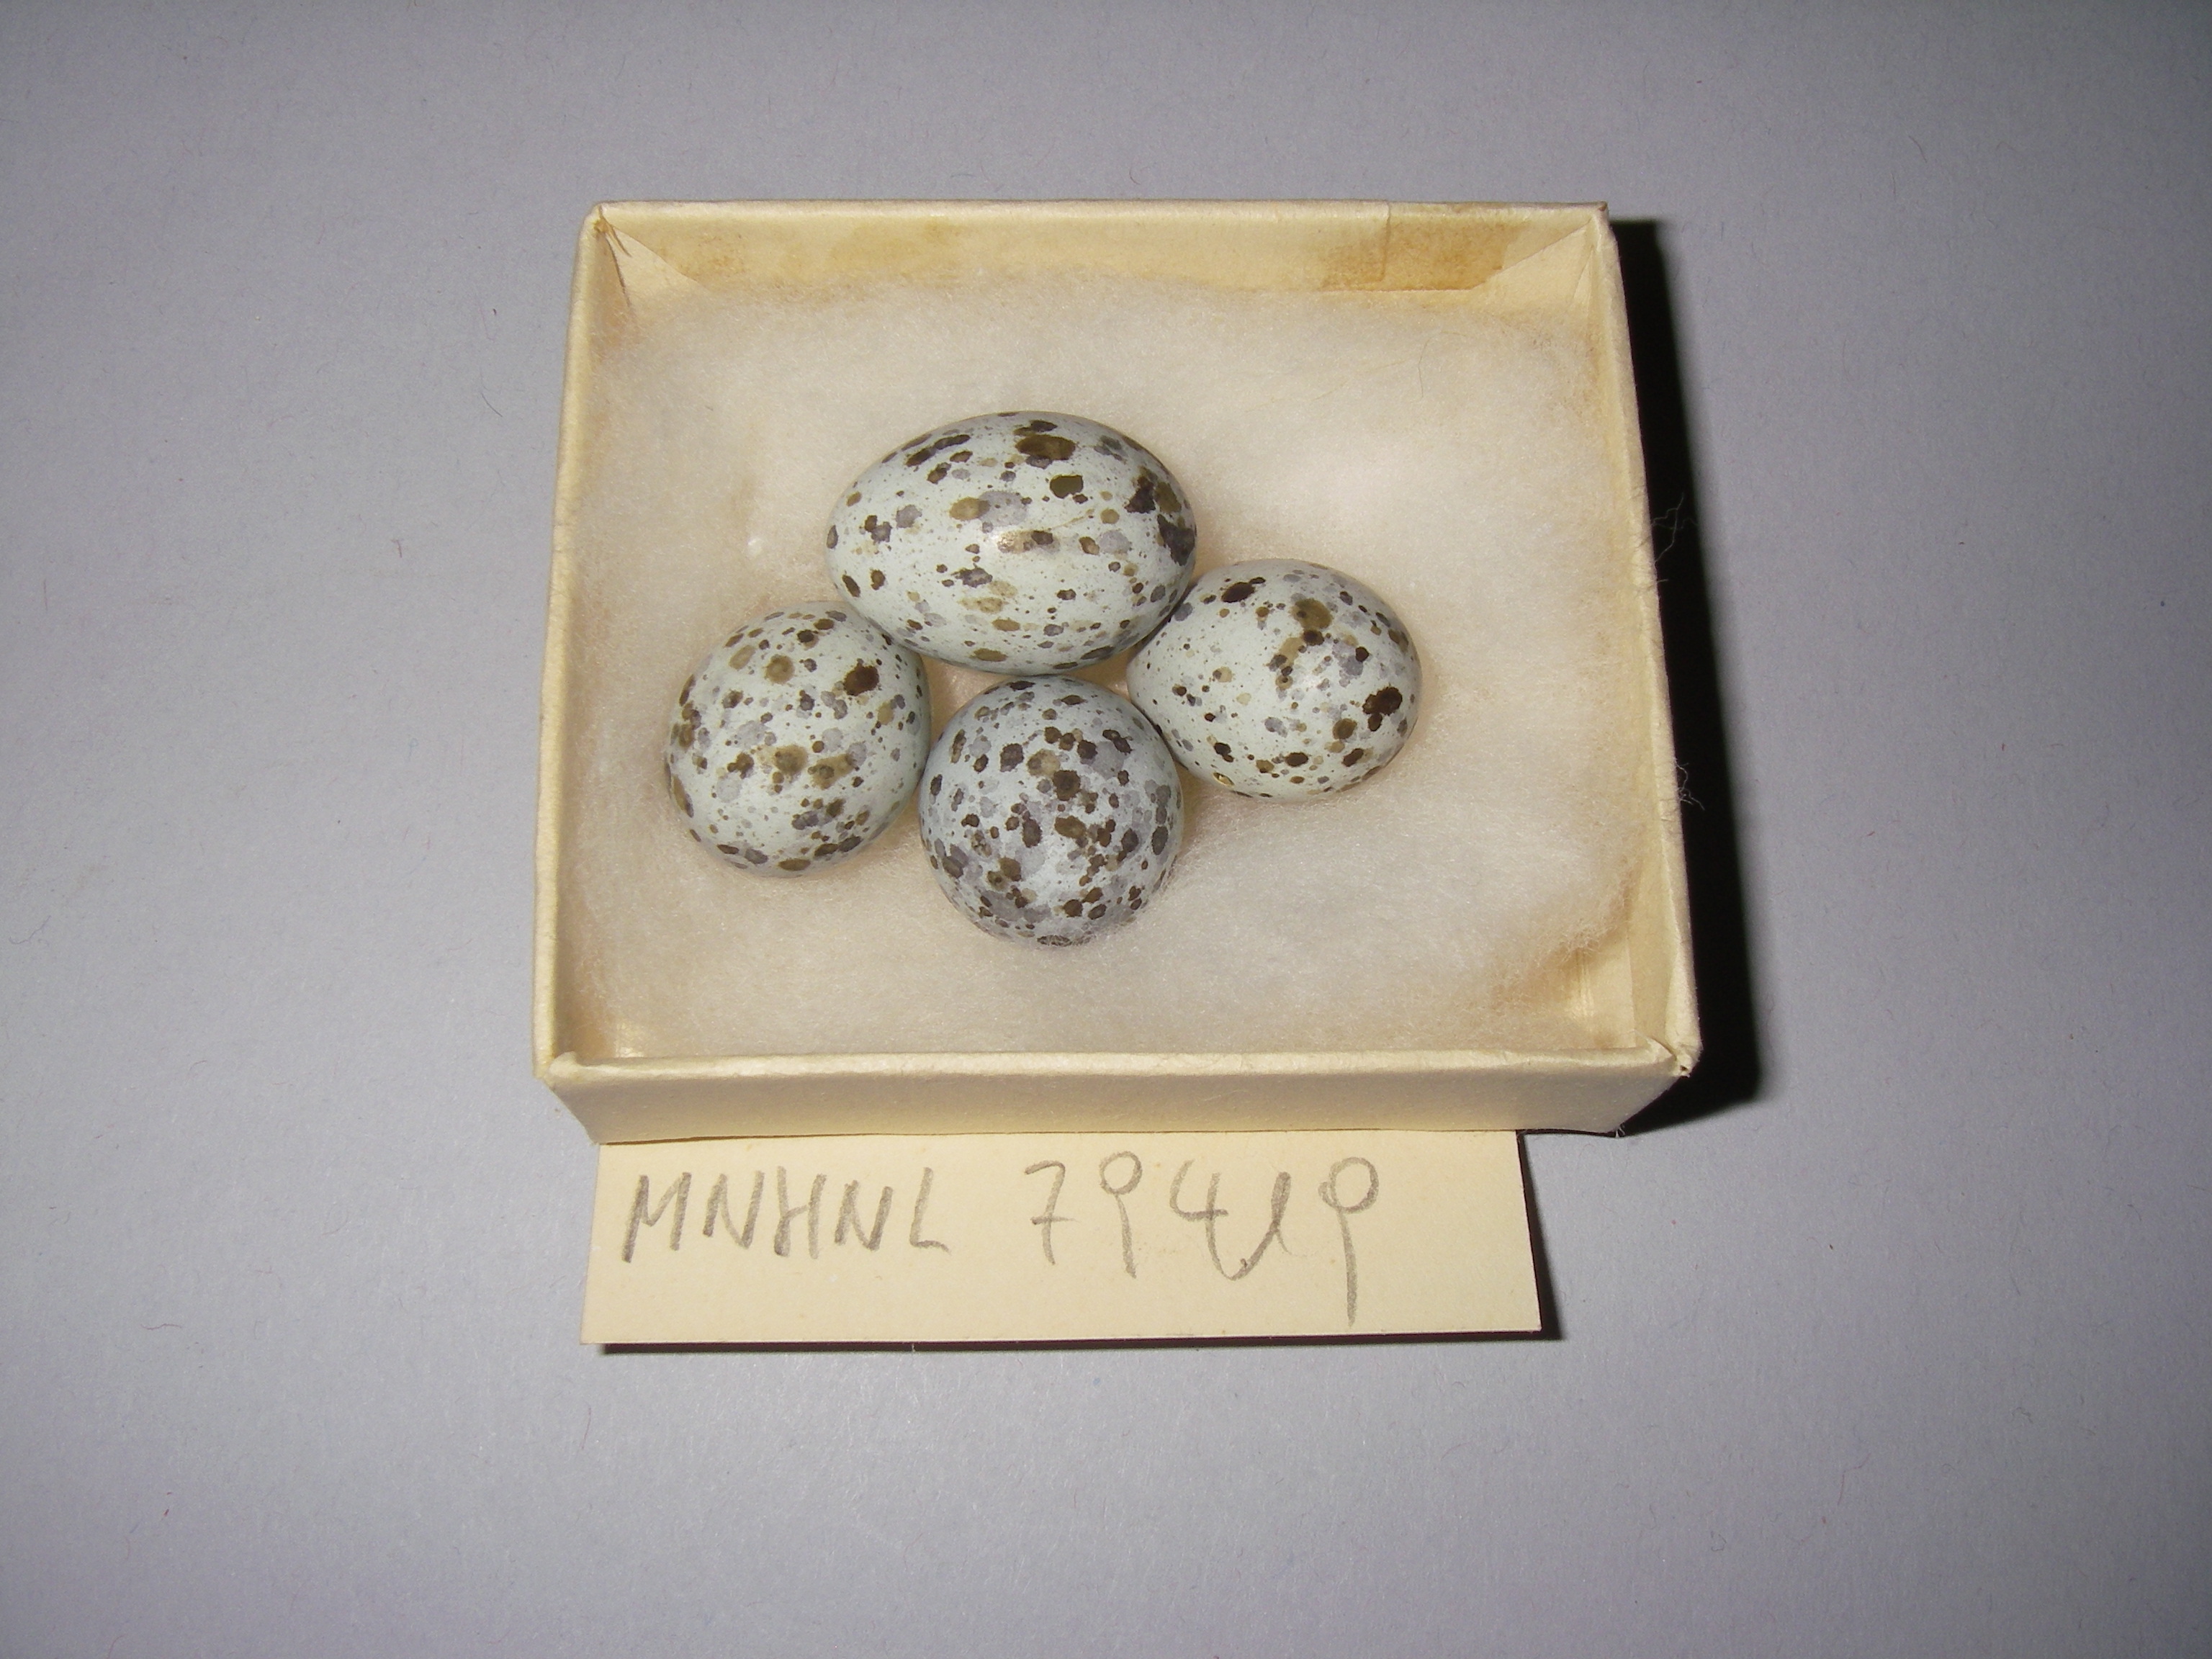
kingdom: Animalia
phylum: Chordata
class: Aves
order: Passeriformes
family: Acrocephalidae
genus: Acrocephalus
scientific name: Acrocephalus arundinaceus
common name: Great reed warbler
